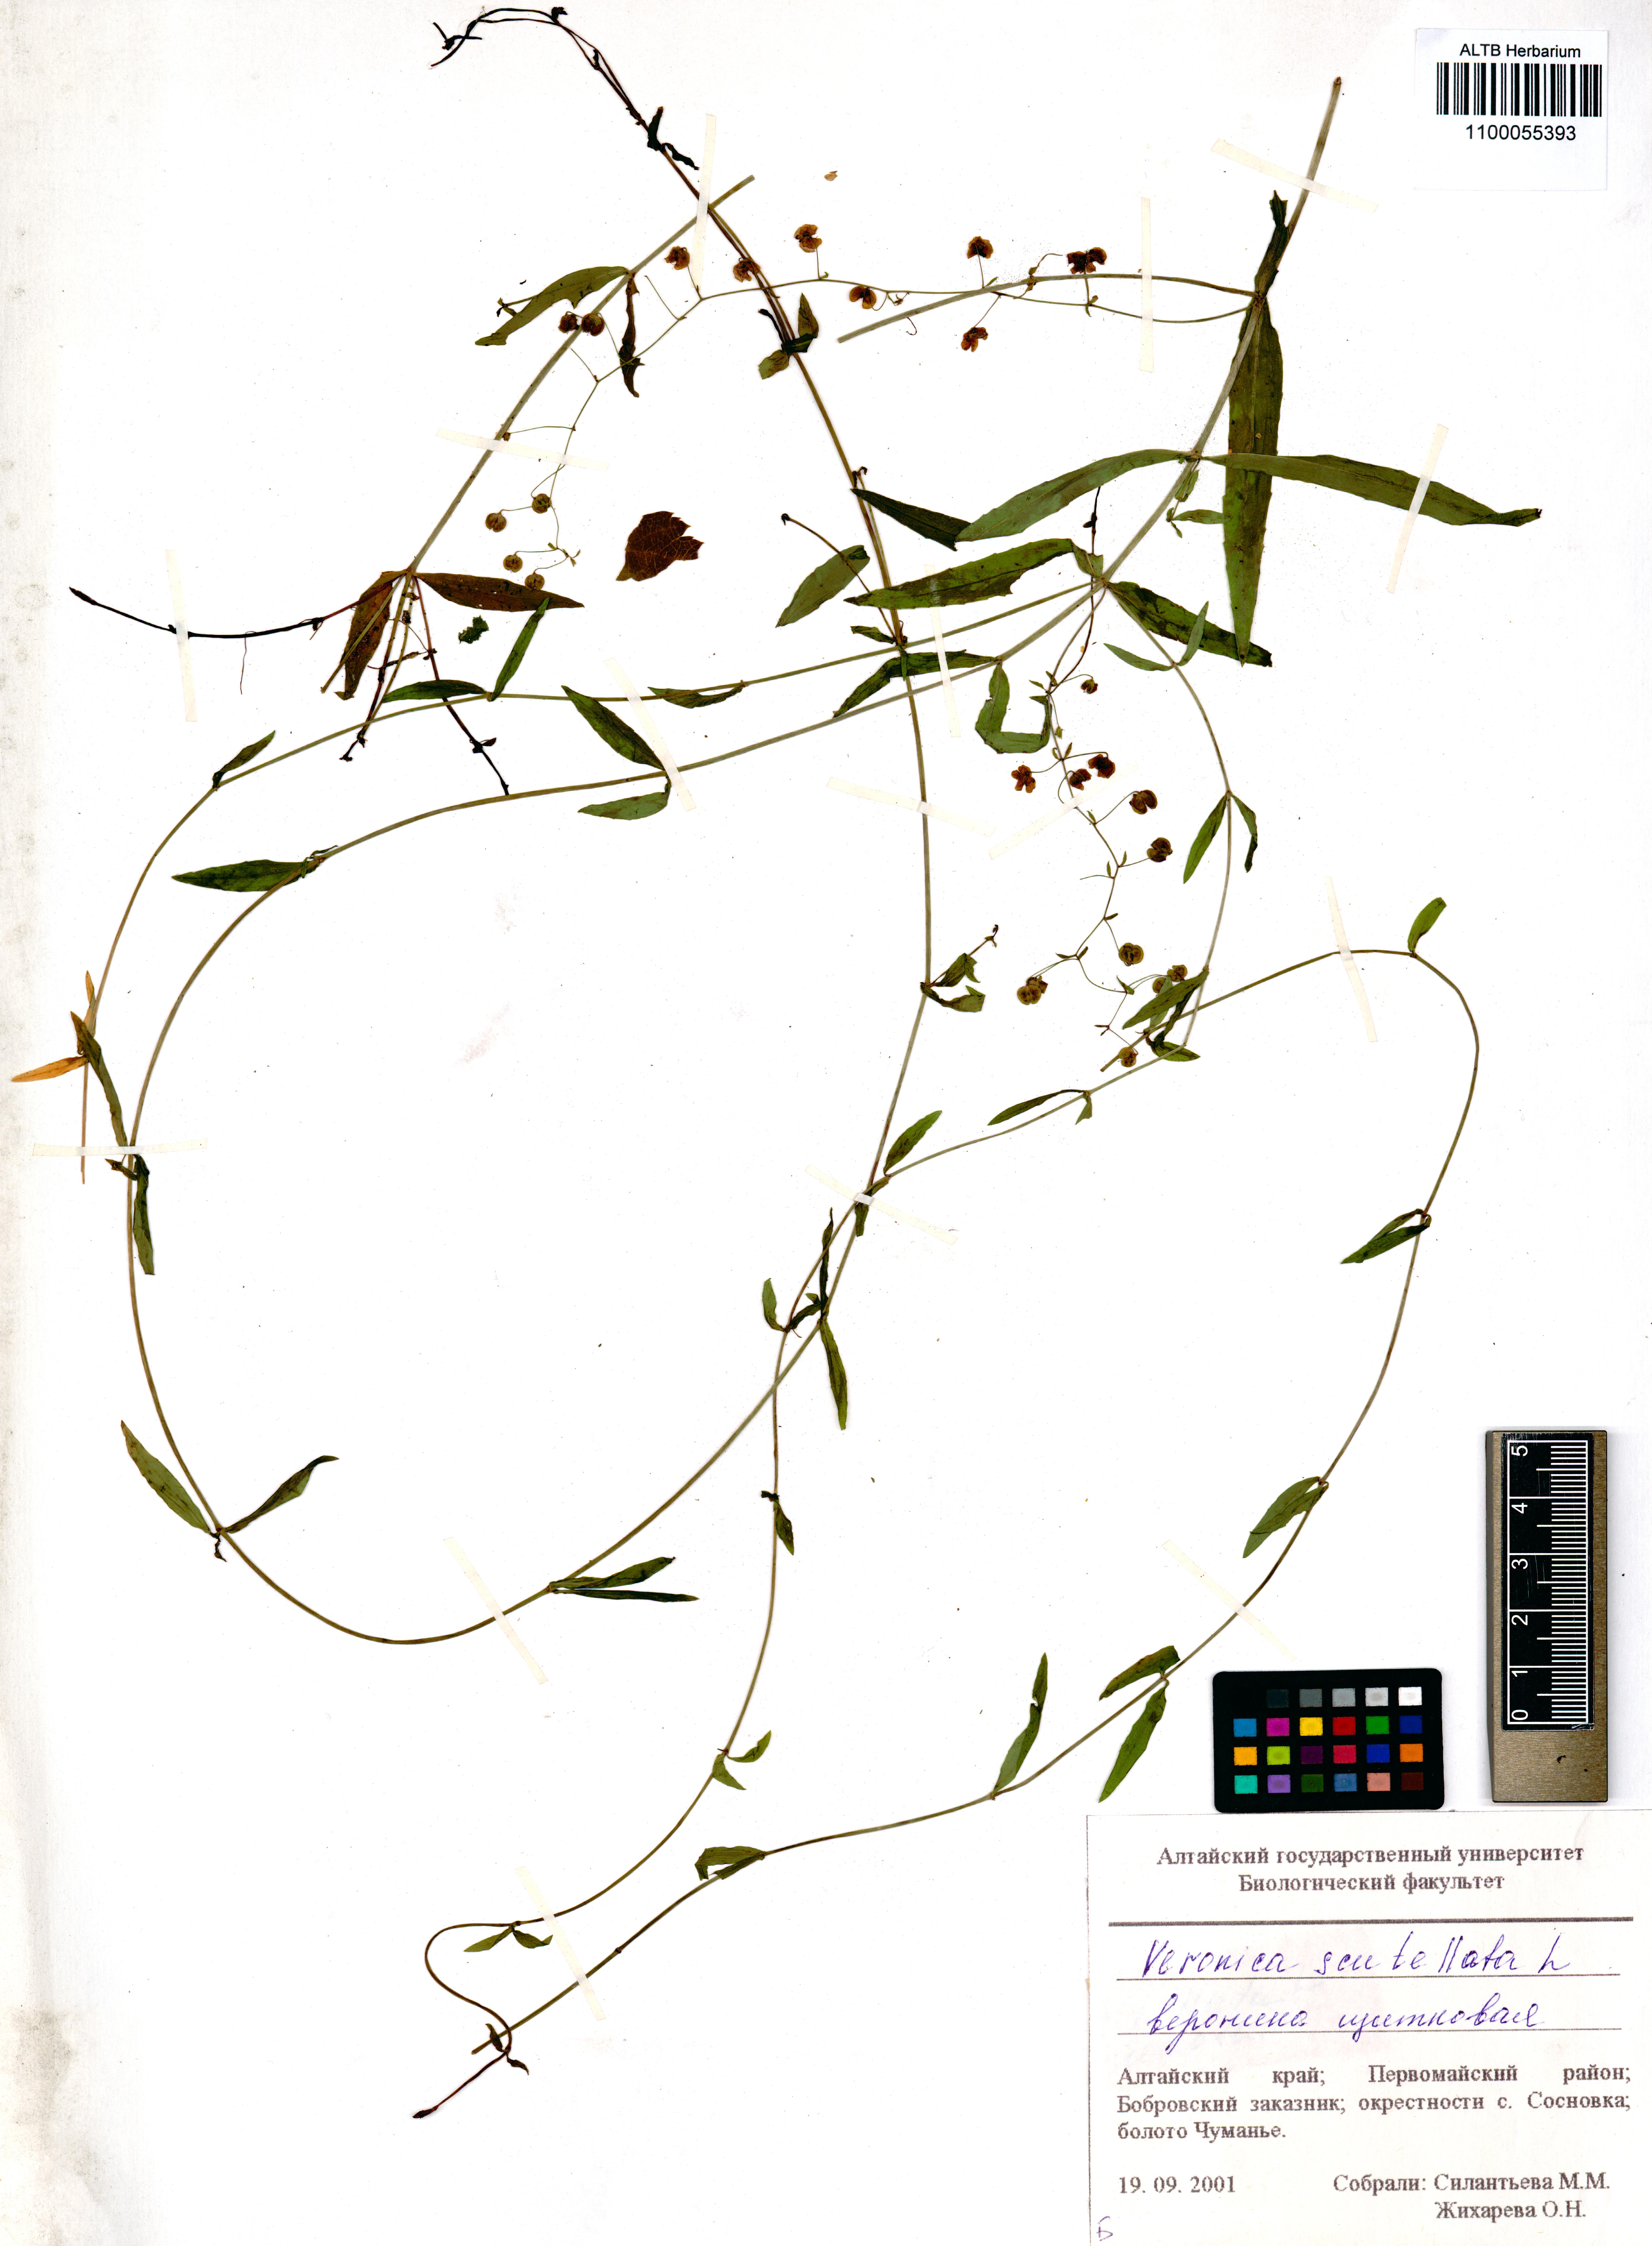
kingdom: Plantae
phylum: Tracheophyta
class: Magnoliopsida
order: Lamiales
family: Plantaginaceae
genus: Veronica
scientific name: Veronica scutellata
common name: Marsh speedwell
